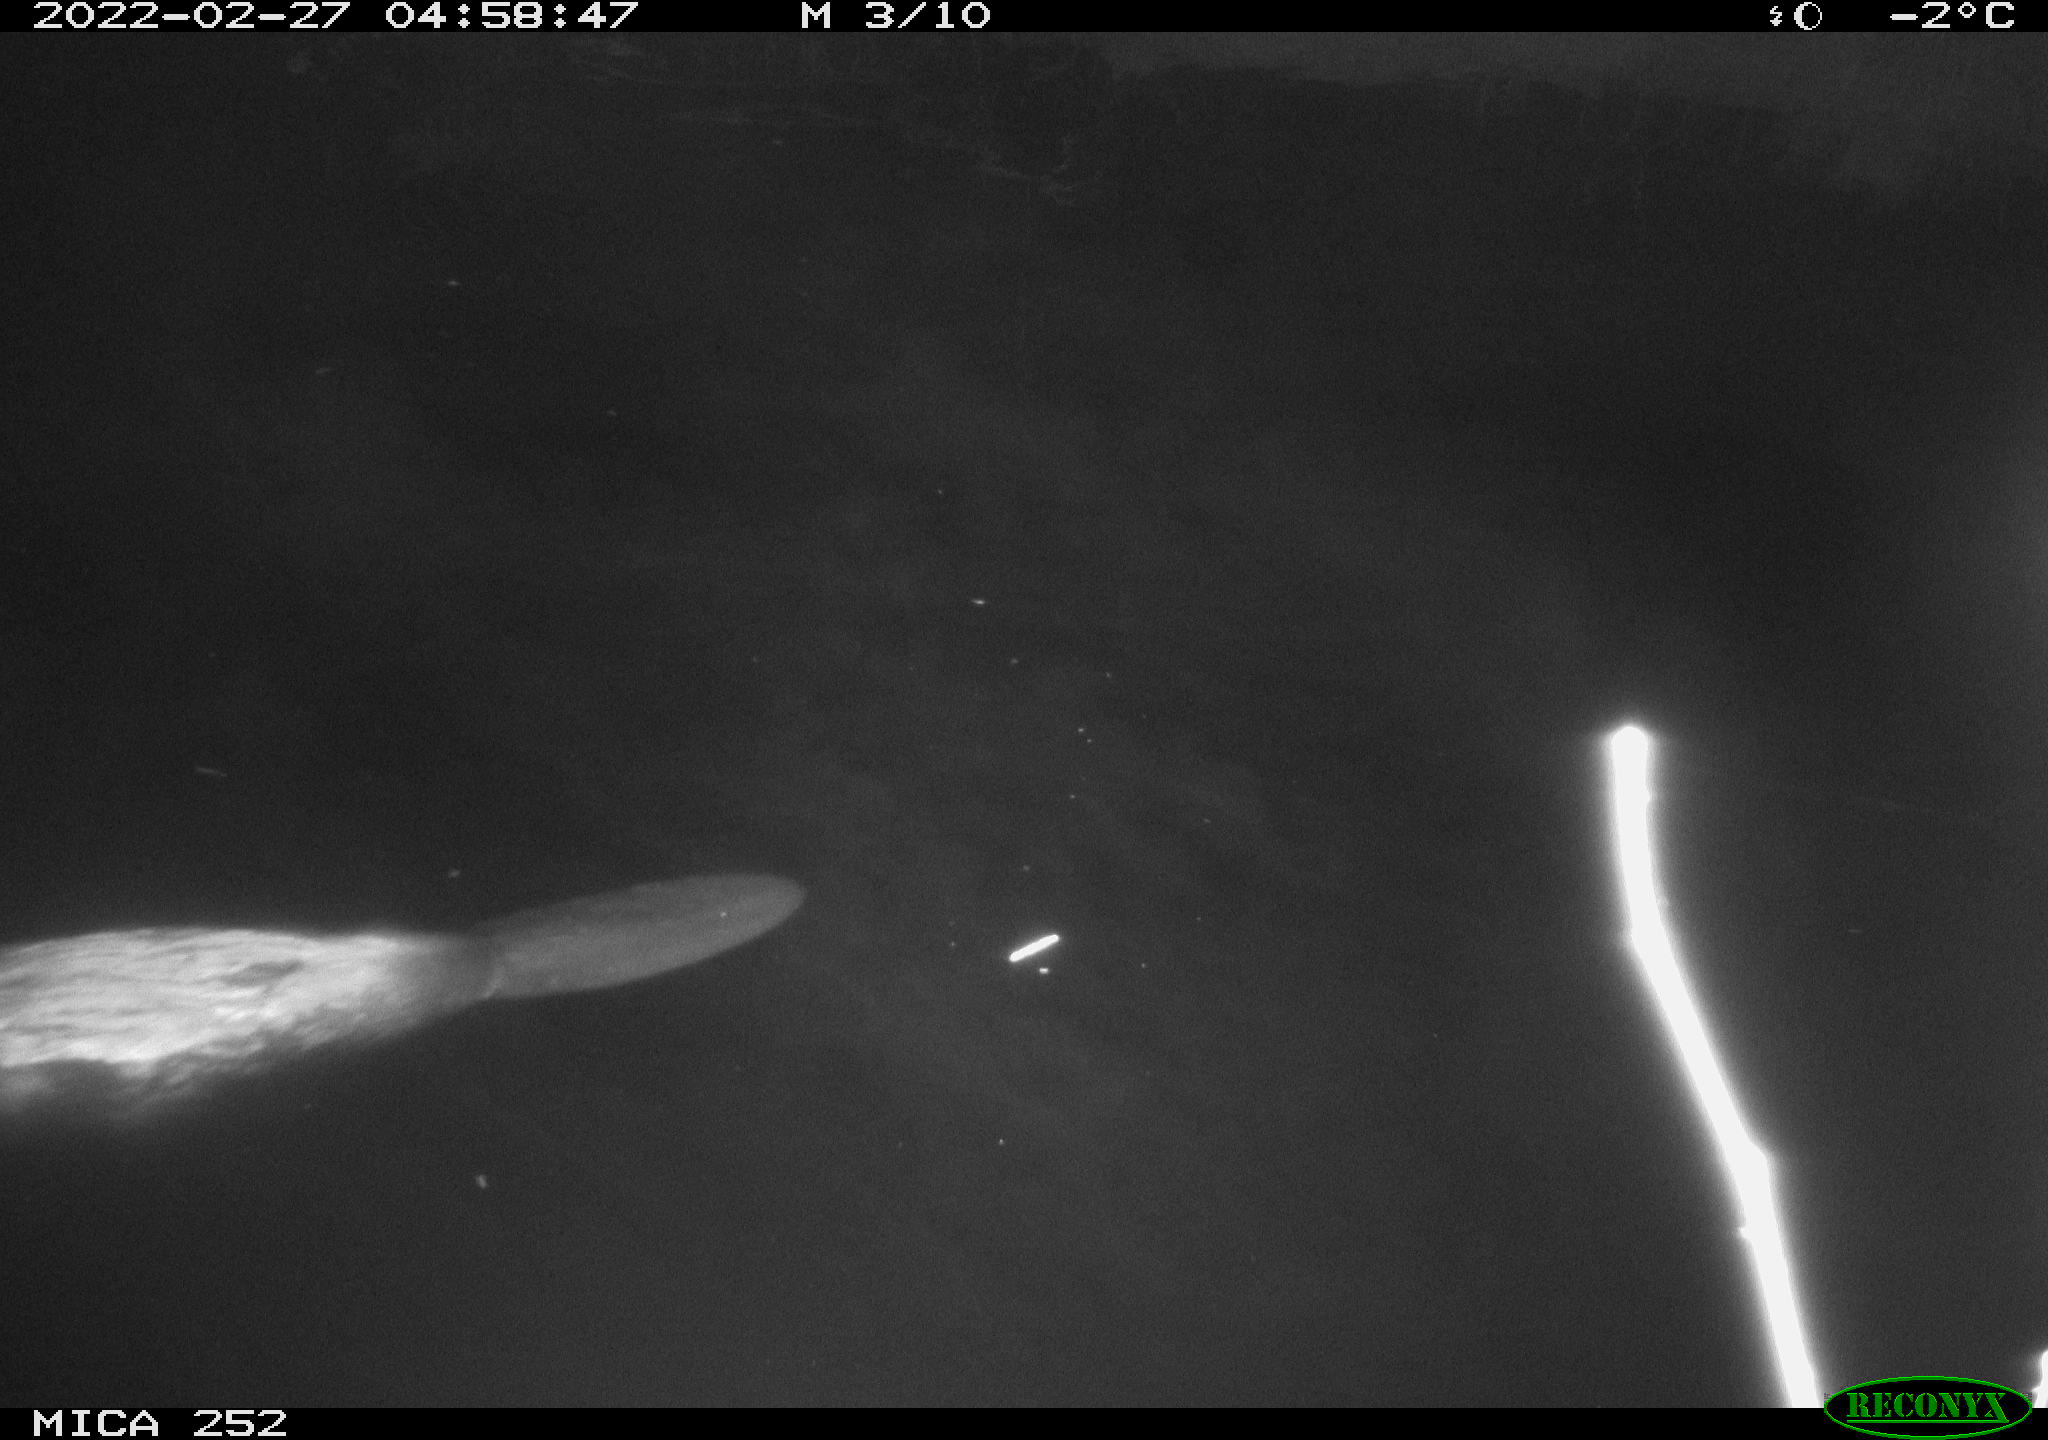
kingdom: Animalia
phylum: Chordata
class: Mammalia
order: Rodentia
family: Castoridae
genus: Castor
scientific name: Castor fiber
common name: Eurasian beaver
